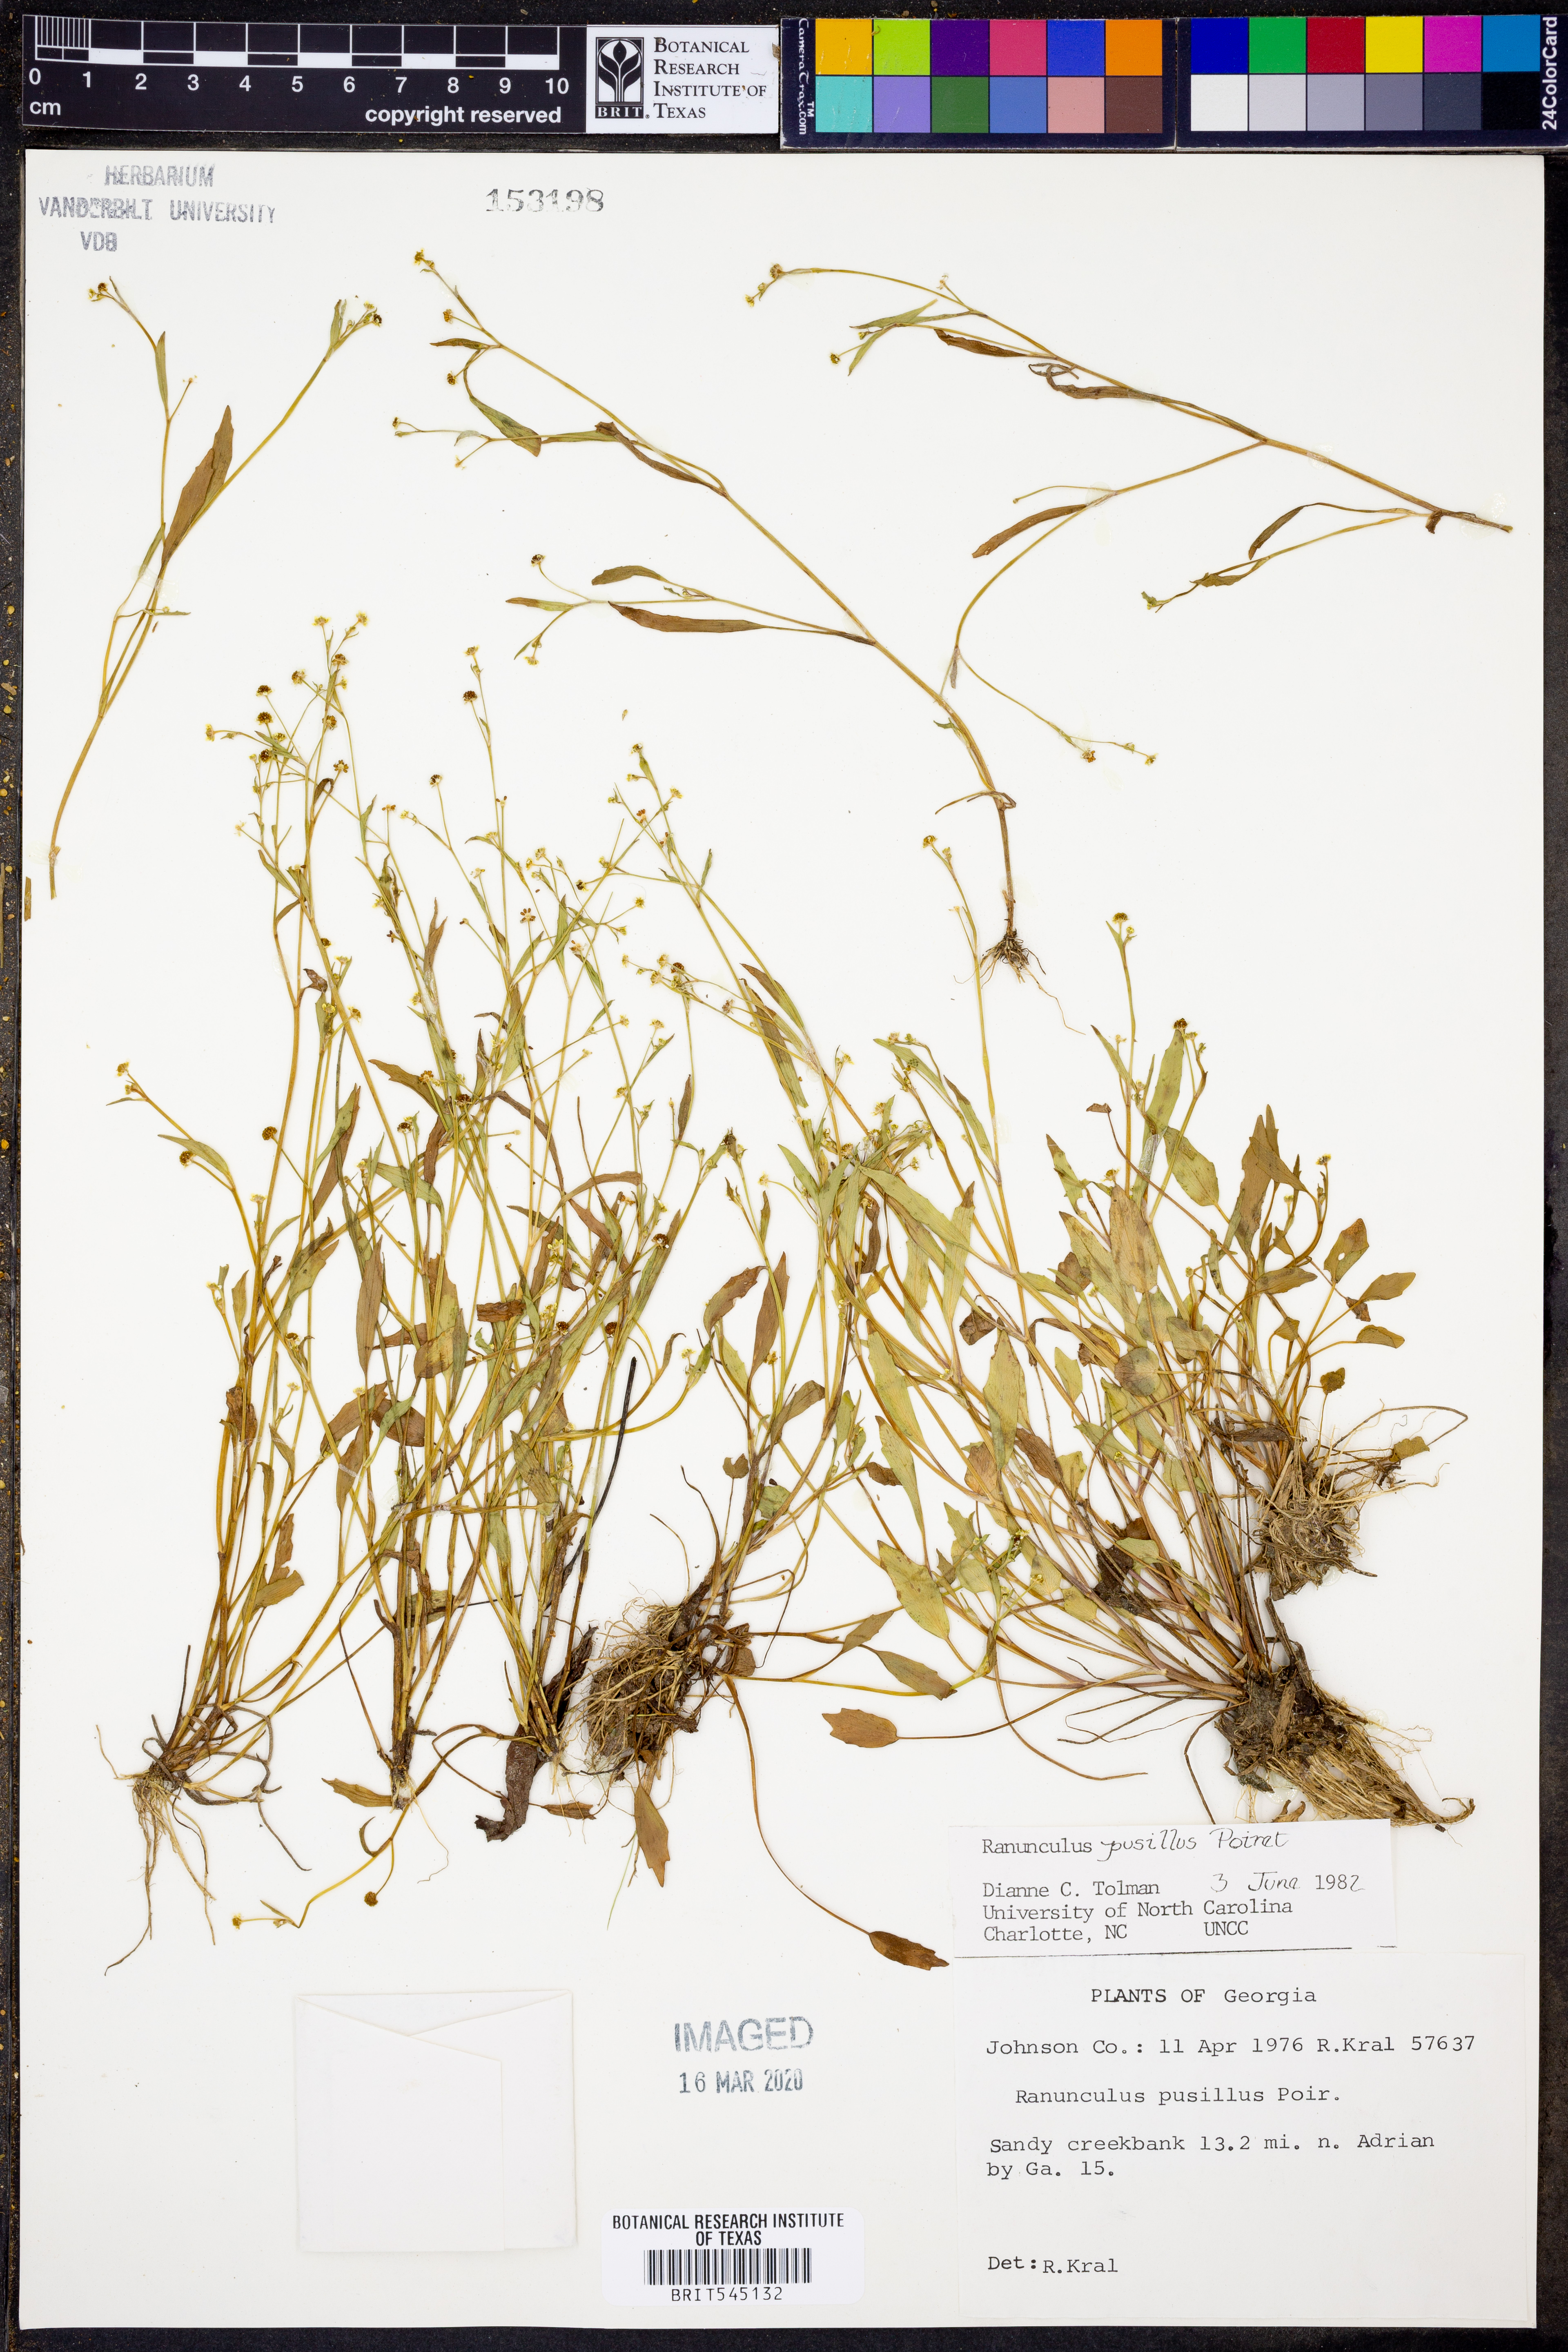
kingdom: Plantae
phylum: Tracheophyta
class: Magnoliopsida
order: Ranunculales
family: Ranunculaceae
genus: Ranunculus
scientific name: Ranunculus pusillus
